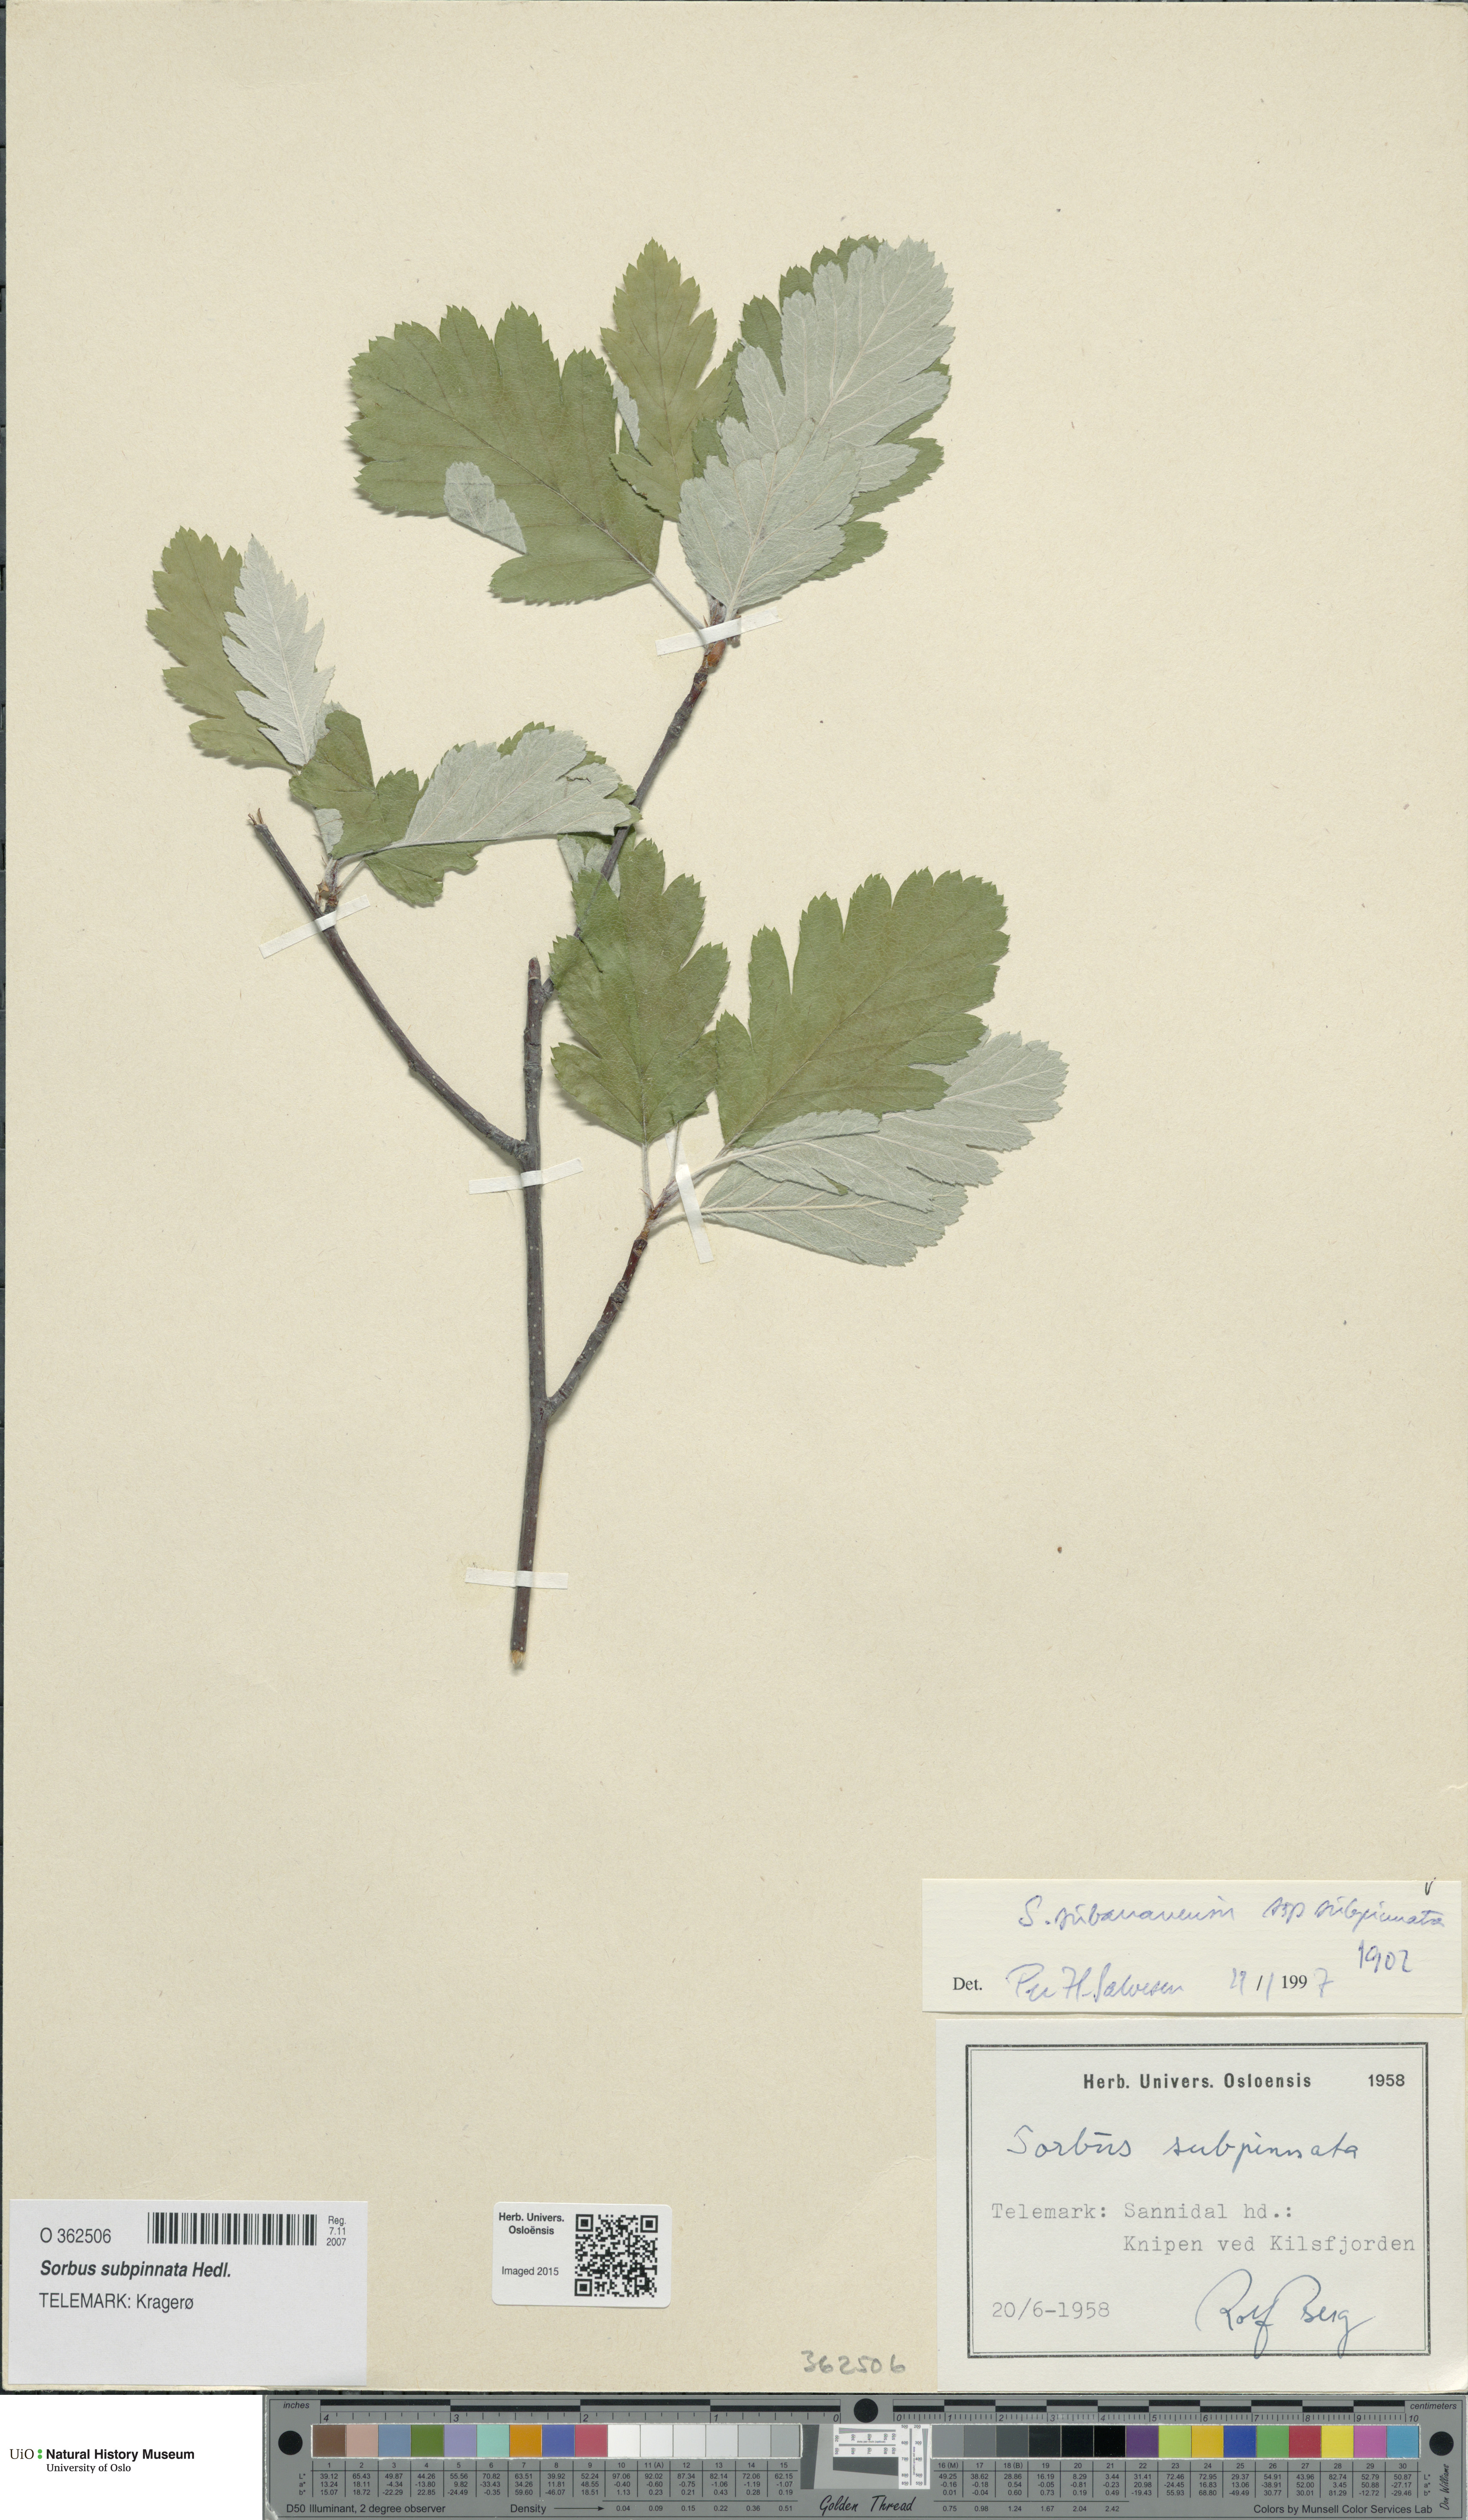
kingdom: Plantae
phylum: Tracheophyta
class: Magnoliopsida
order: Rosales
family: Rosaceae
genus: Hedlundia
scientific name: Hedlundia subpinnata
